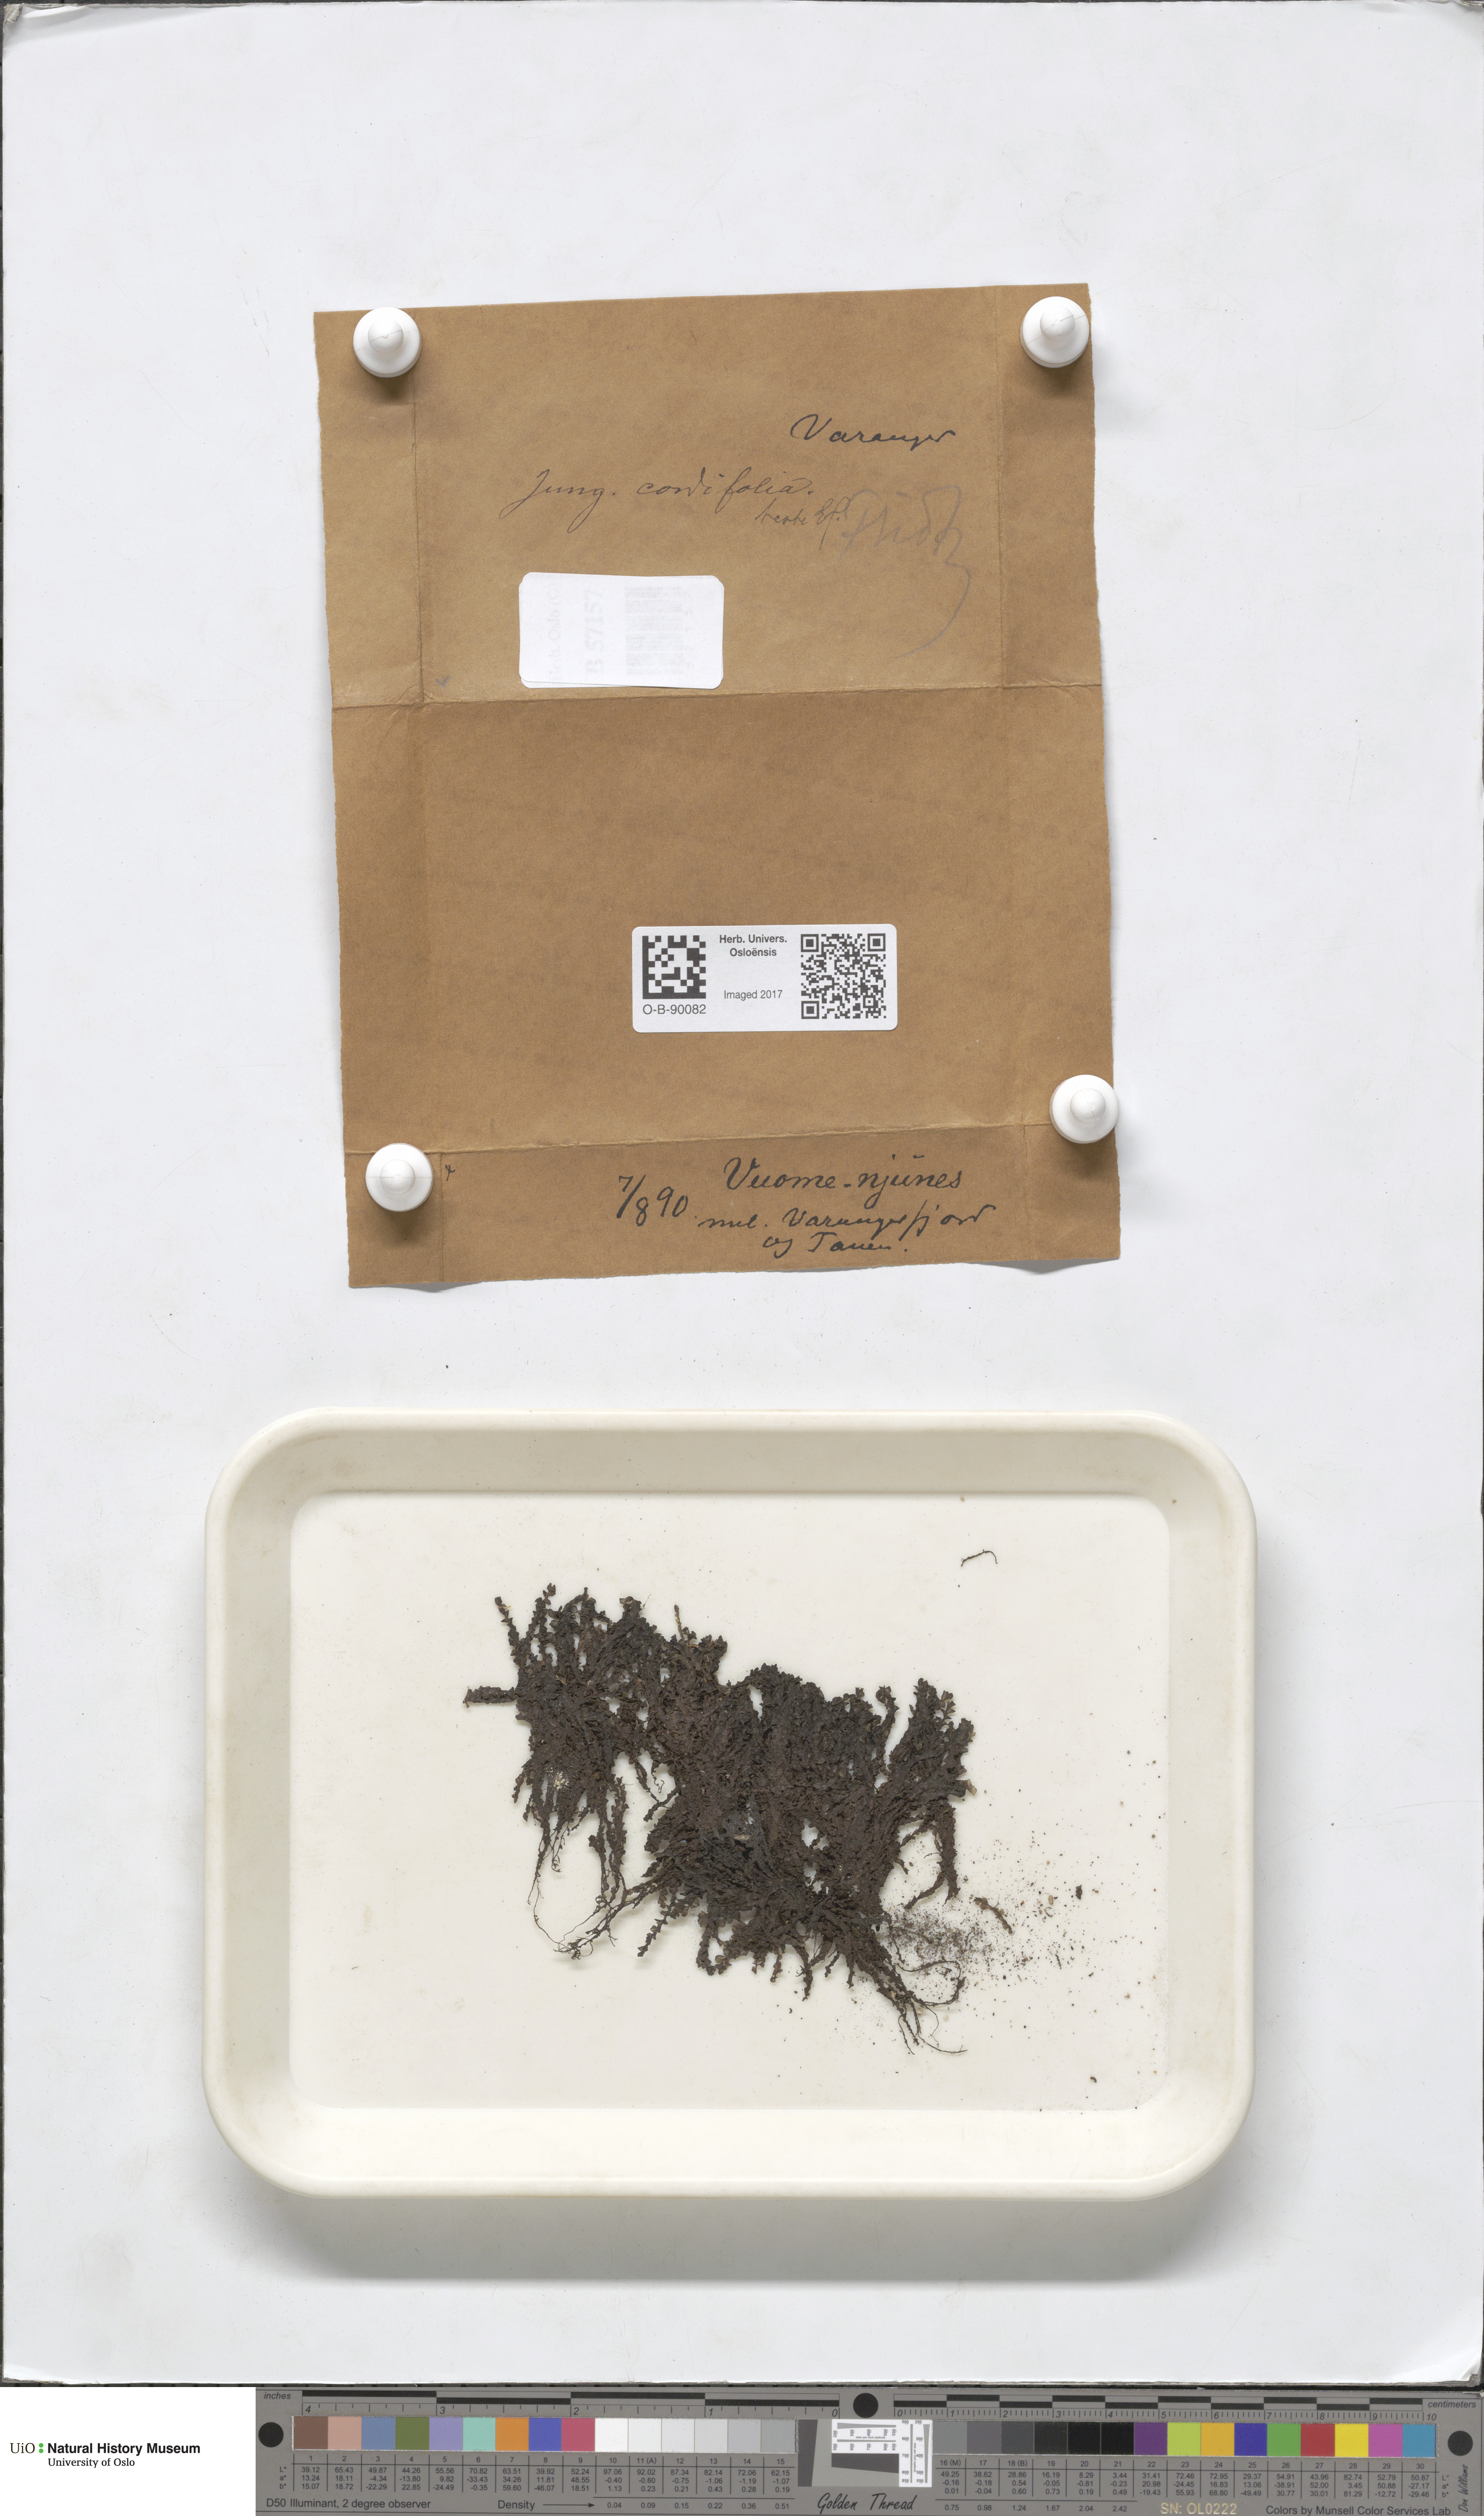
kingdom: Plantae
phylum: Marchantiophyta
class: Jungermanniopsida
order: Jungermanniales
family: Jungermanniaceae
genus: Jungermannia
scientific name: Jungermannia eucordifolia
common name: Cordate flapwort
